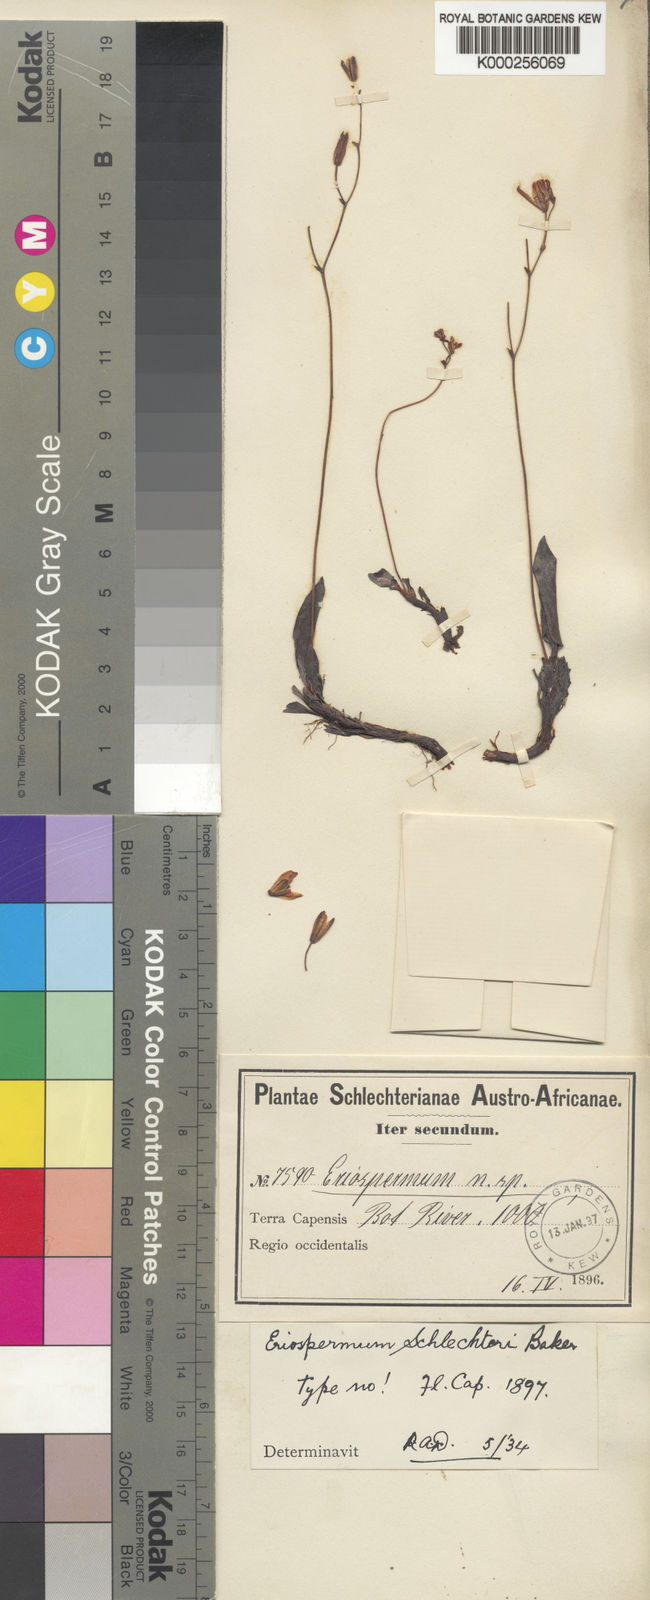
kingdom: Plantae
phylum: Tracheophyta
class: Liliopsida
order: Asparagales
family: Asparagaceae
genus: Eriospermum
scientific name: Eriospermum schlechteri
